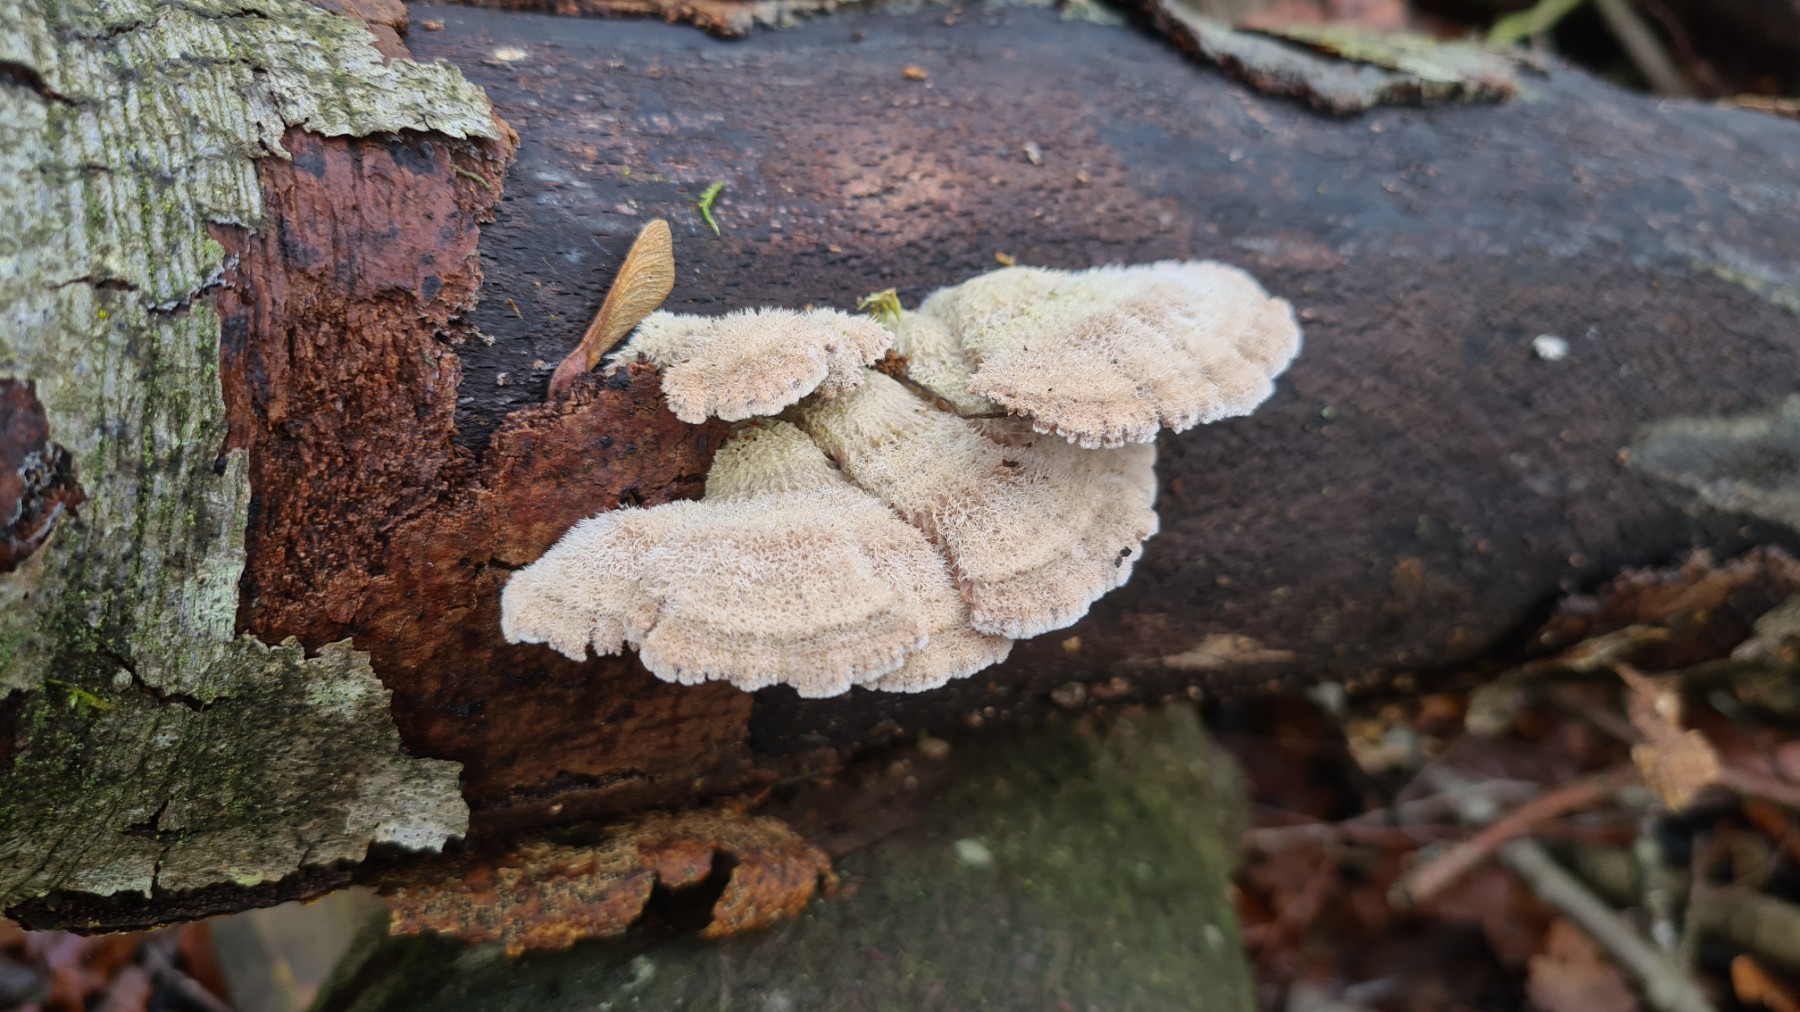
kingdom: Fungi
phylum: Basidiomycota
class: Agaricomycetes
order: Agaricales
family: Schizophyllaceae
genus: Schizophyllum
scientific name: Schizophyllum commune
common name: kløvblad
